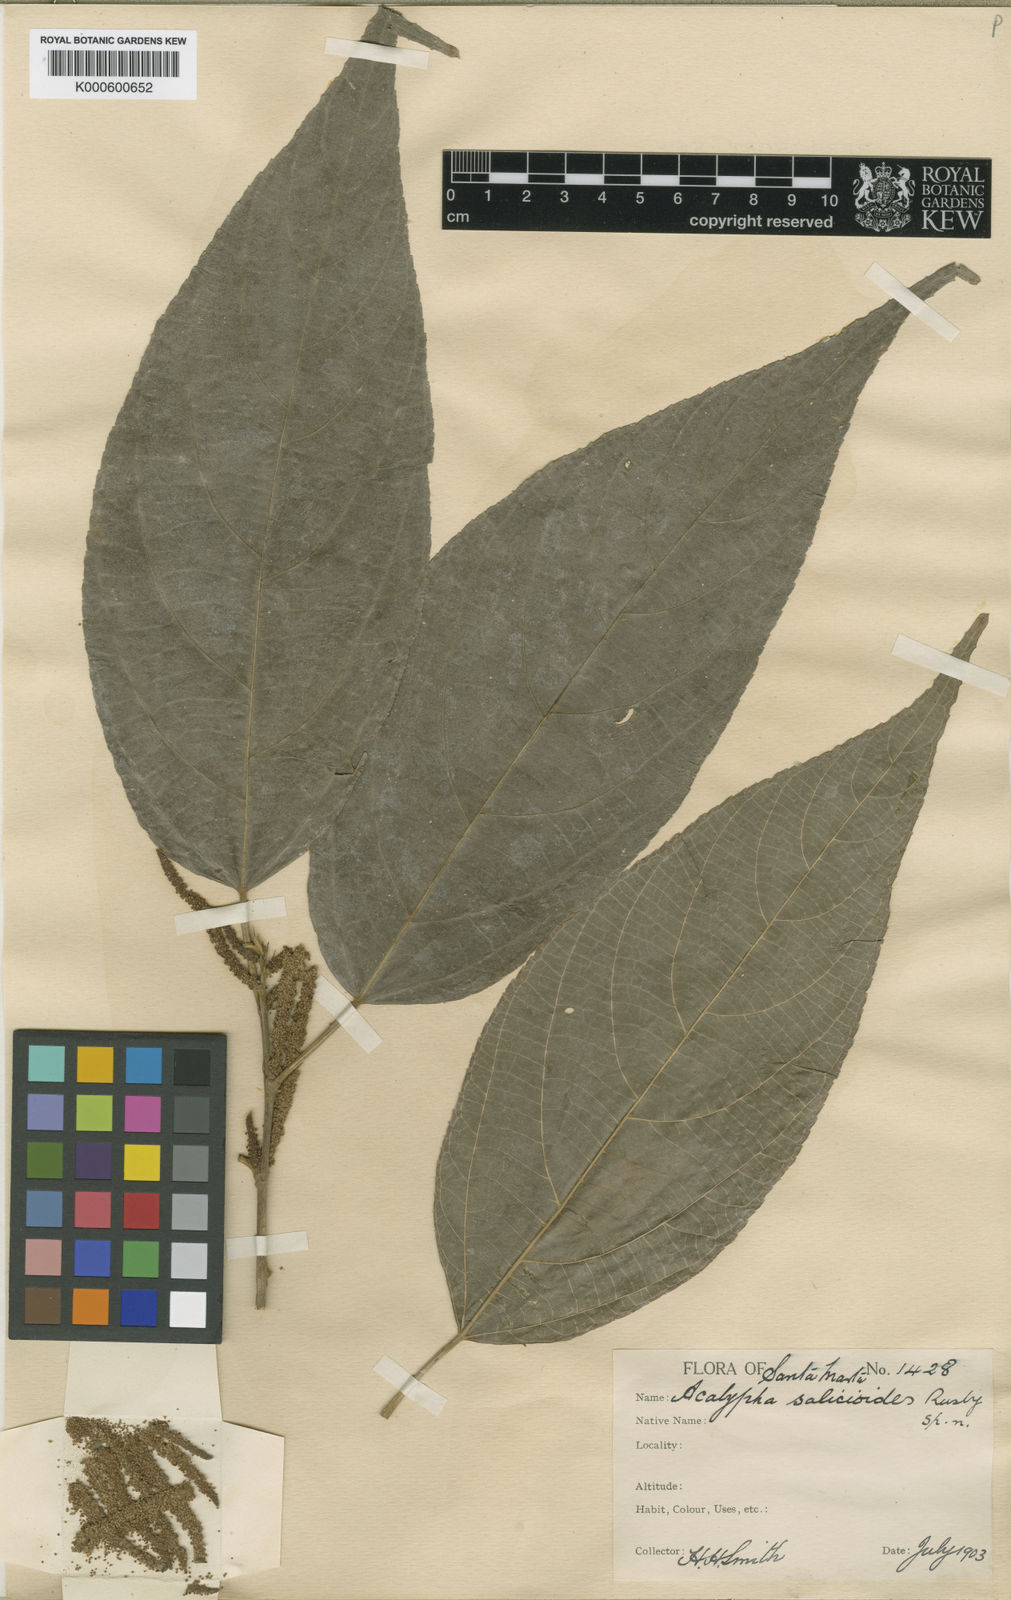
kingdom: Plantae
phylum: Tracheophyta
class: Magnoliopsida
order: Malpighiales
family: Euphorbiaceae
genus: Acalypha
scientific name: Acalypha diversifolia
